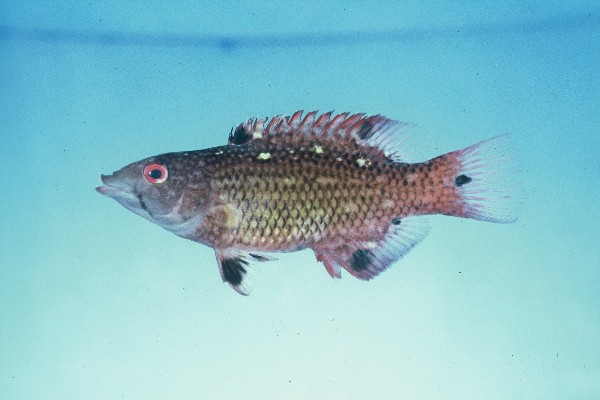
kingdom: Animalia
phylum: Chordata
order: Perciformes
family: Labridae
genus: Bodianus
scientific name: Bodianus diana
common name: Diana's hogfish
